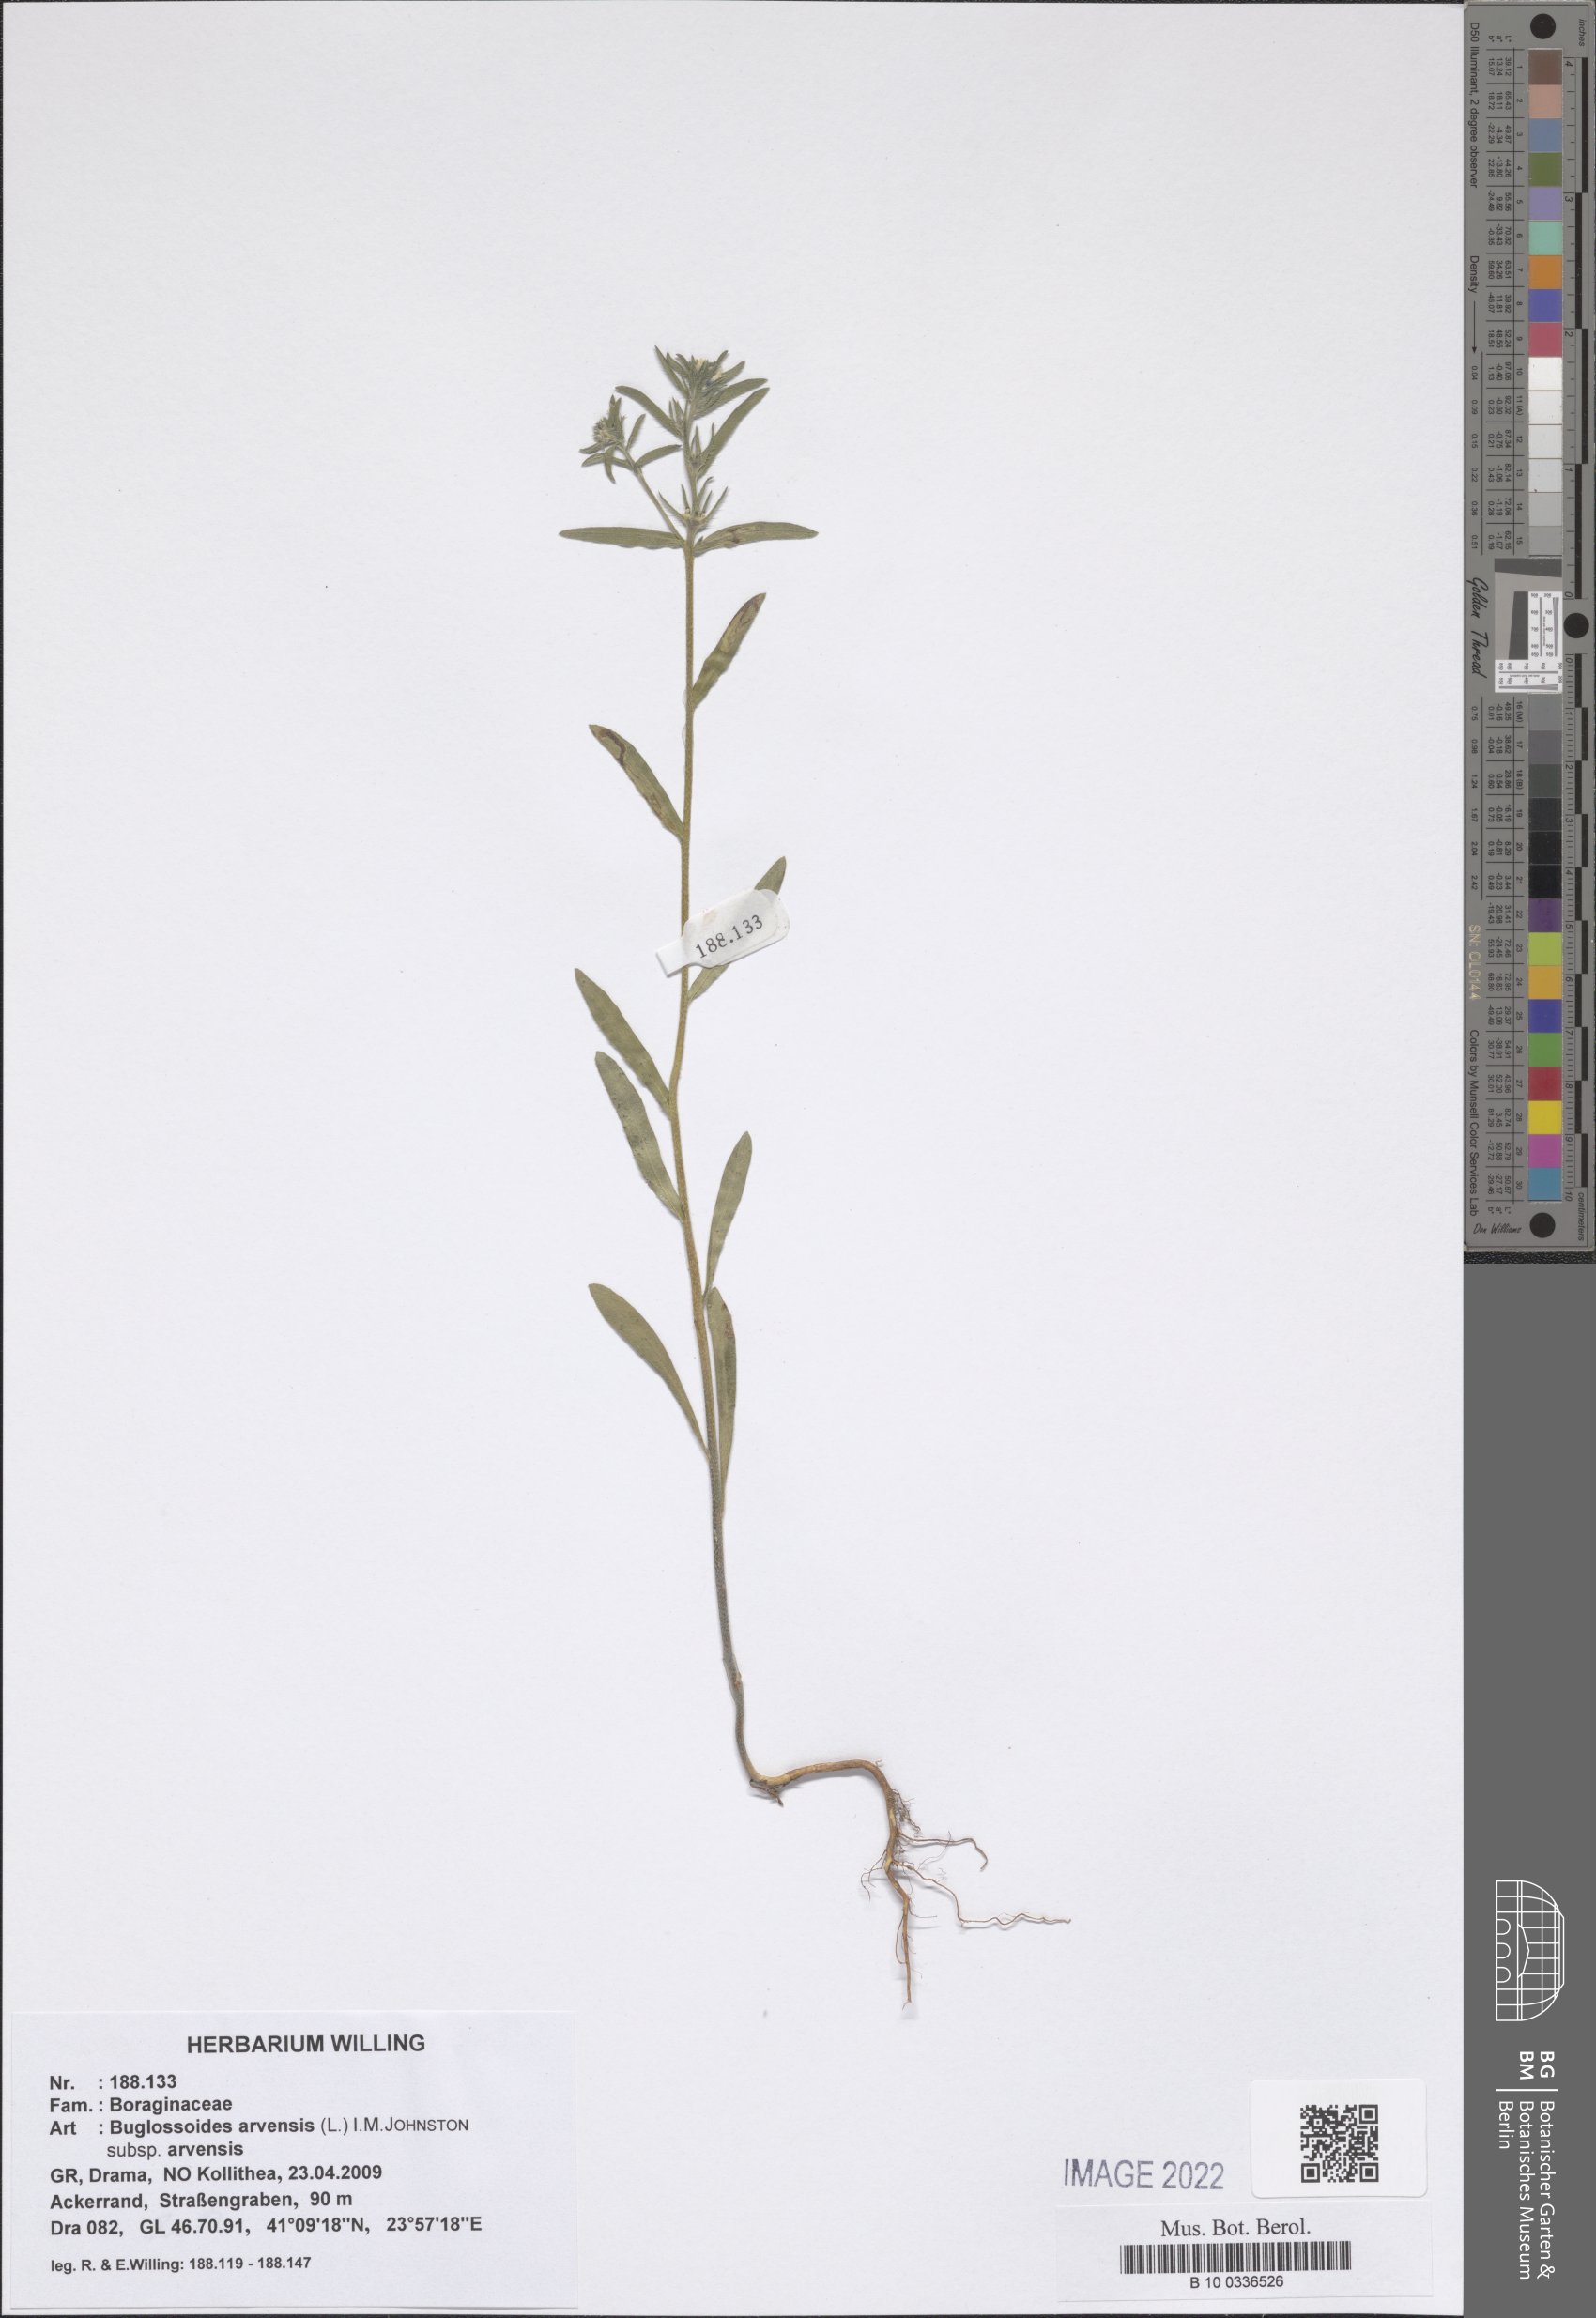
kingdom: Plantae
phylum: Tracheophyta
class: Magnoliopsida
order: Boraginales
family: Boraginaceae
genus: Buglossoides
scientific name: Buglossoides arvensis
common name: Corn gromwell
